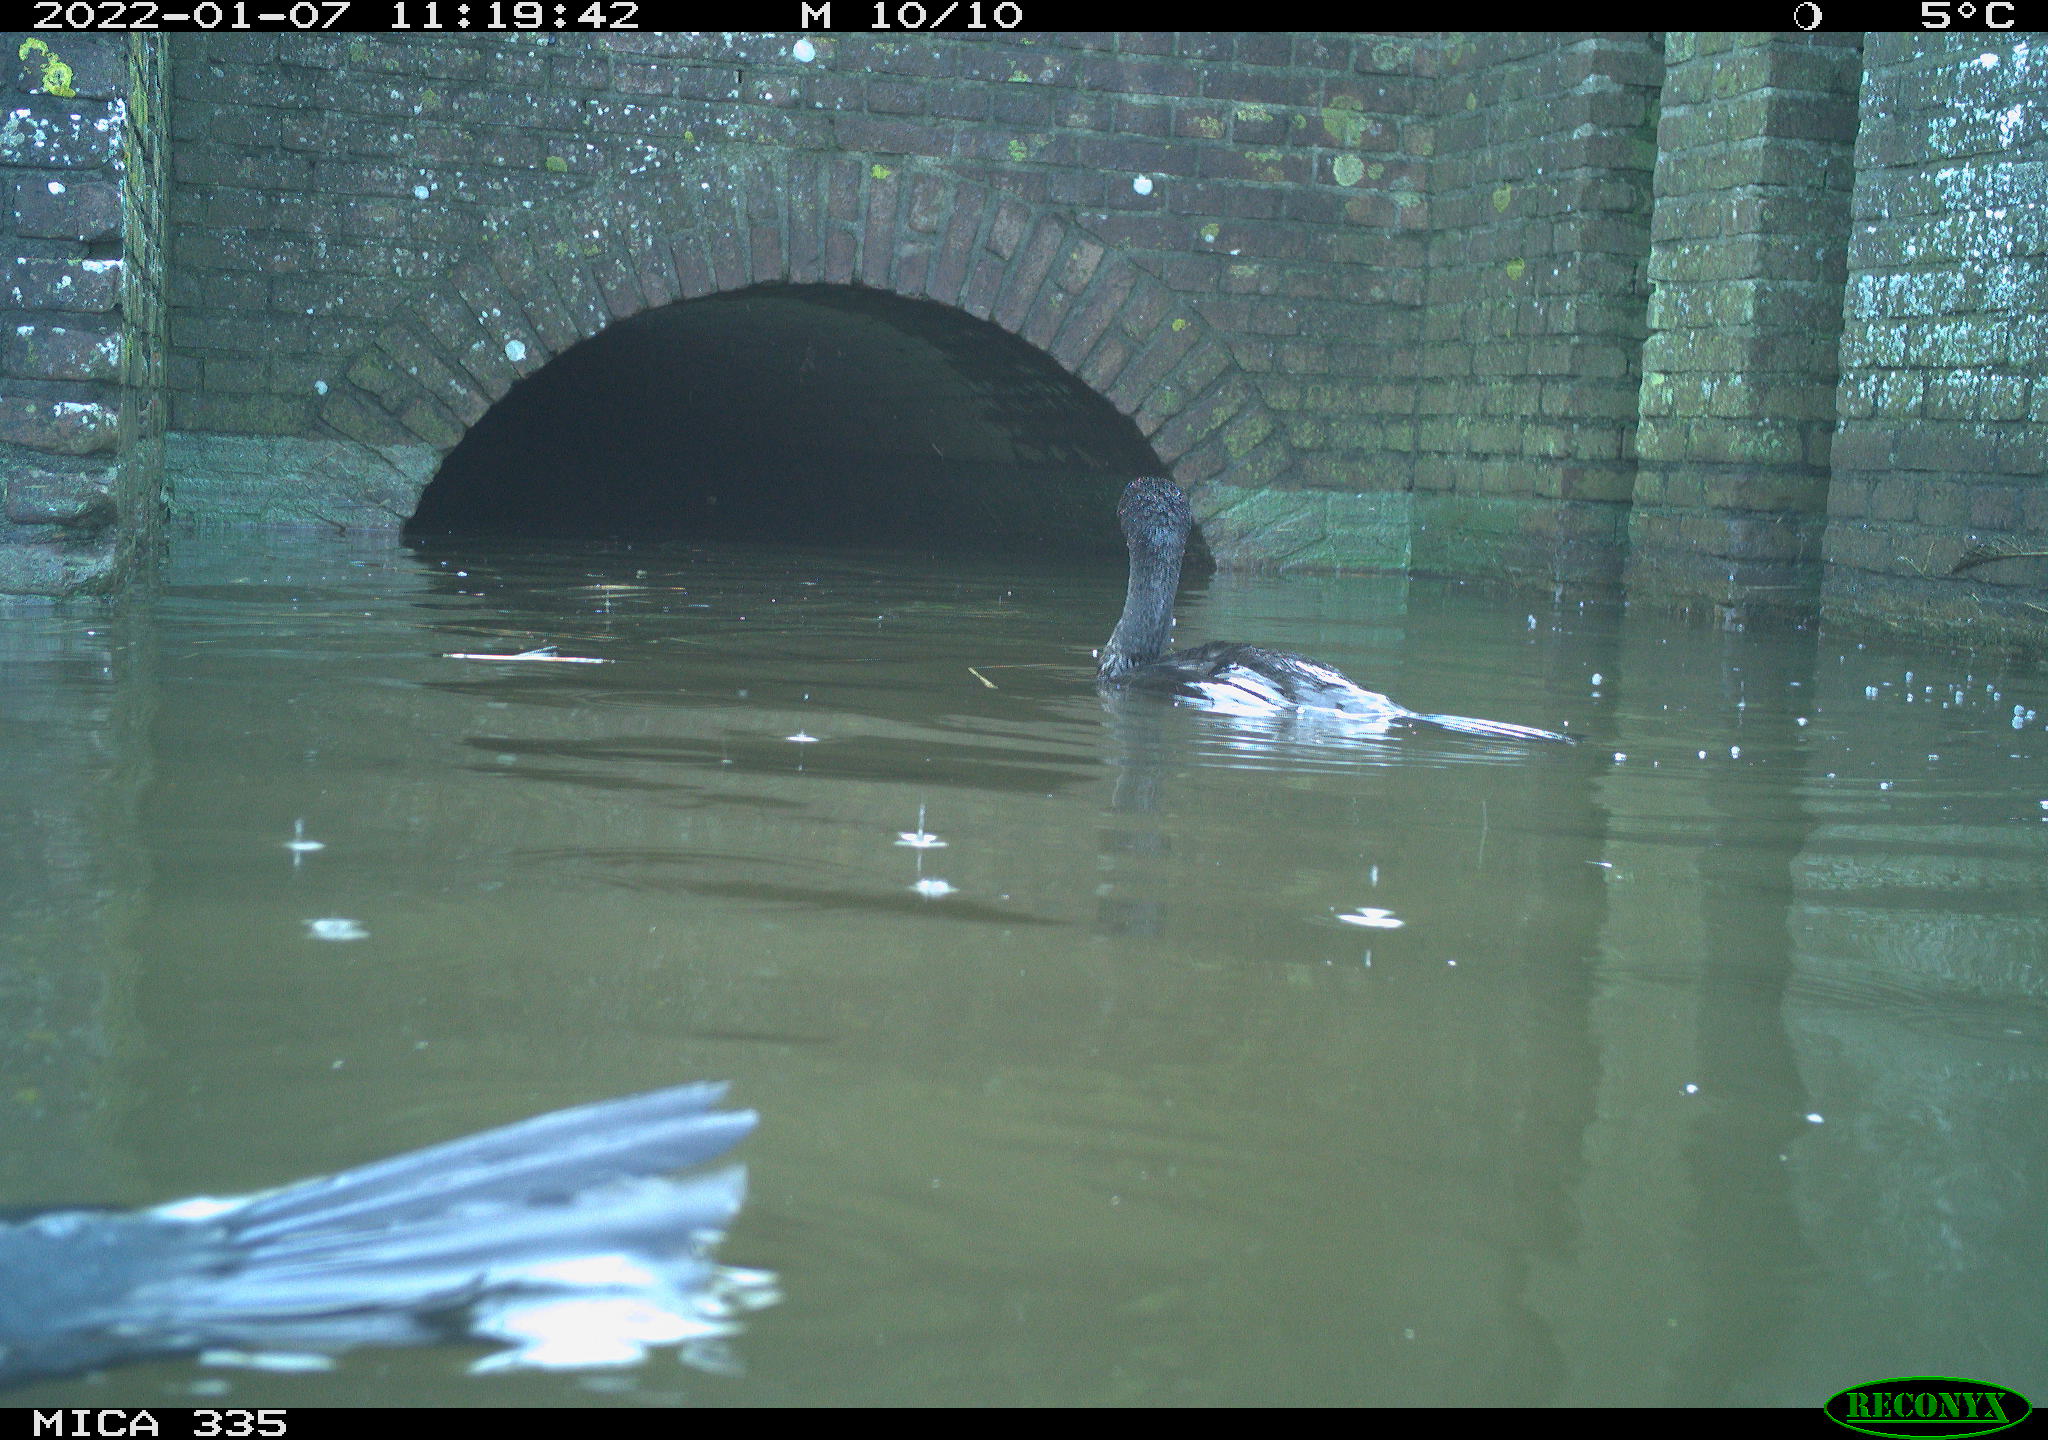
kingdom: Animalia
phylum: Chordata
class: Aves
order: Suliformes
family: Phalacrocoracidae
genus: Phalacrocorax
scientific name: Phalacrocorax carbo
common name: Great cormorant
